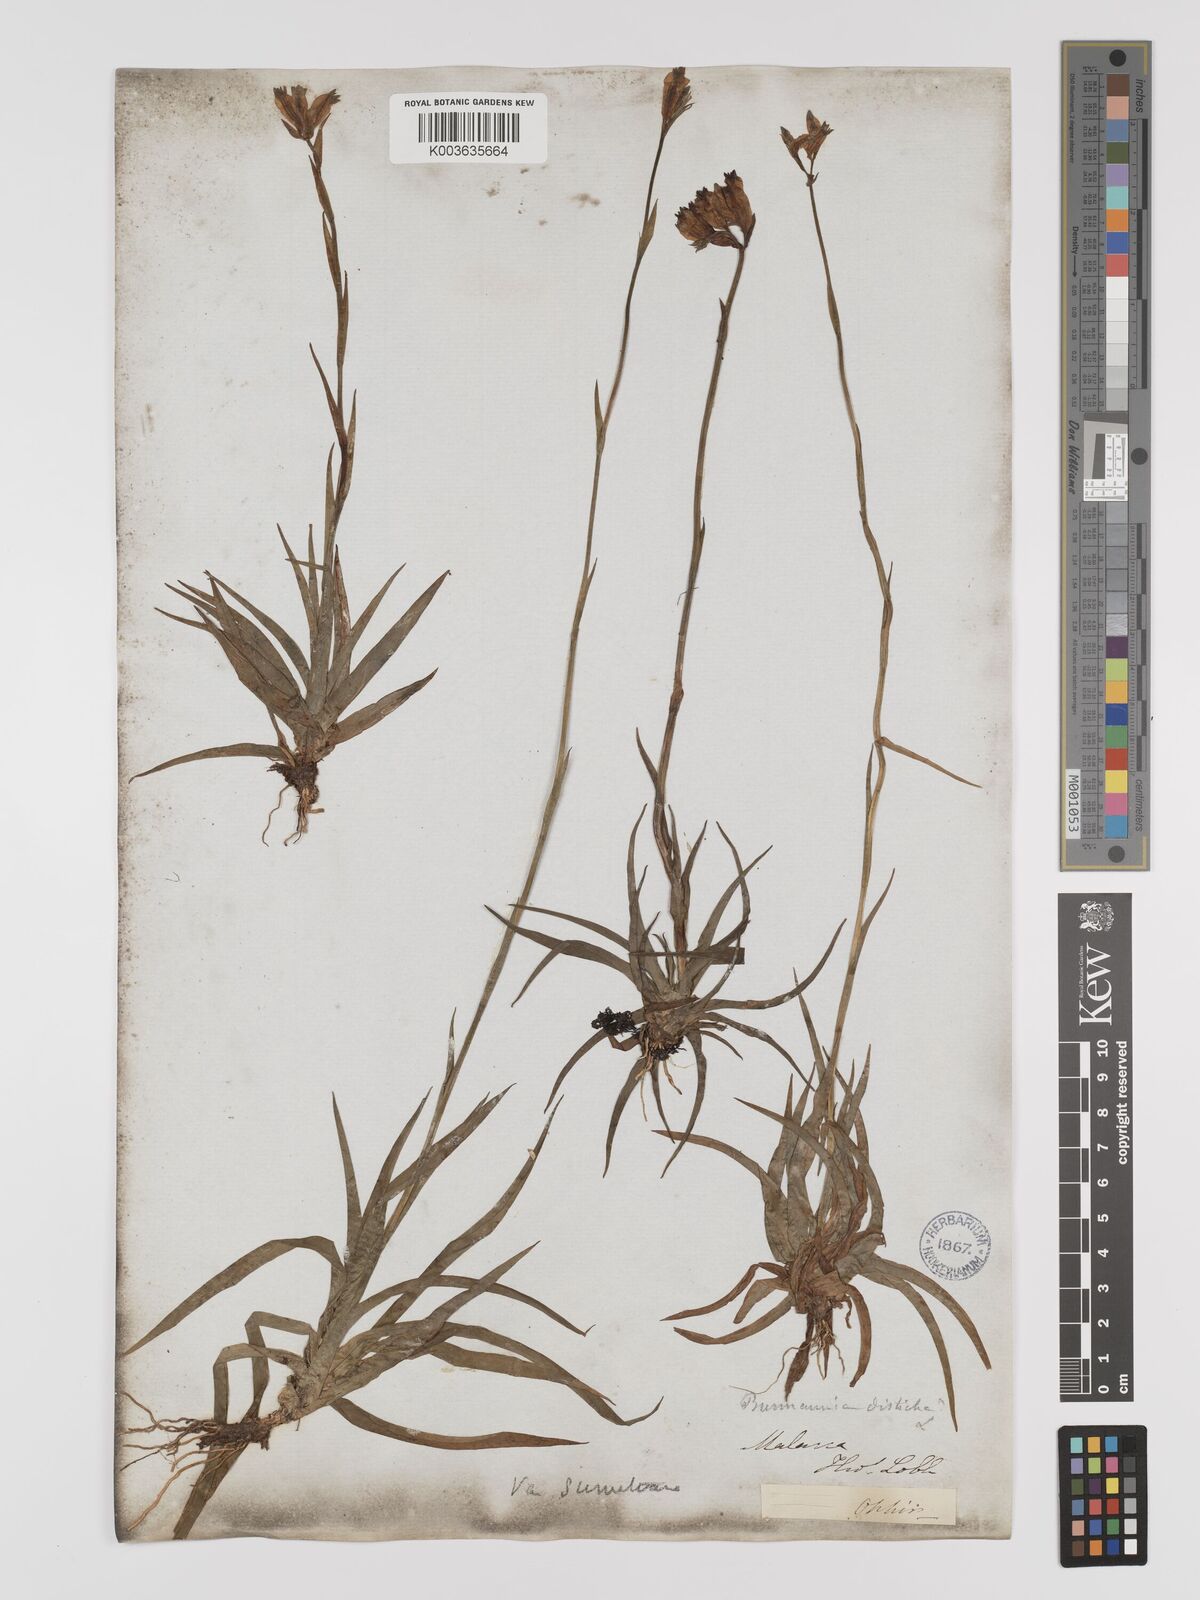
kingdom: Plantae
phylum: Tracheophyta
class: Liliopsida
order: Dioscoreales
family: Burmanniaceae
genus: Burmannia
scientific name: Burmannia disticha
